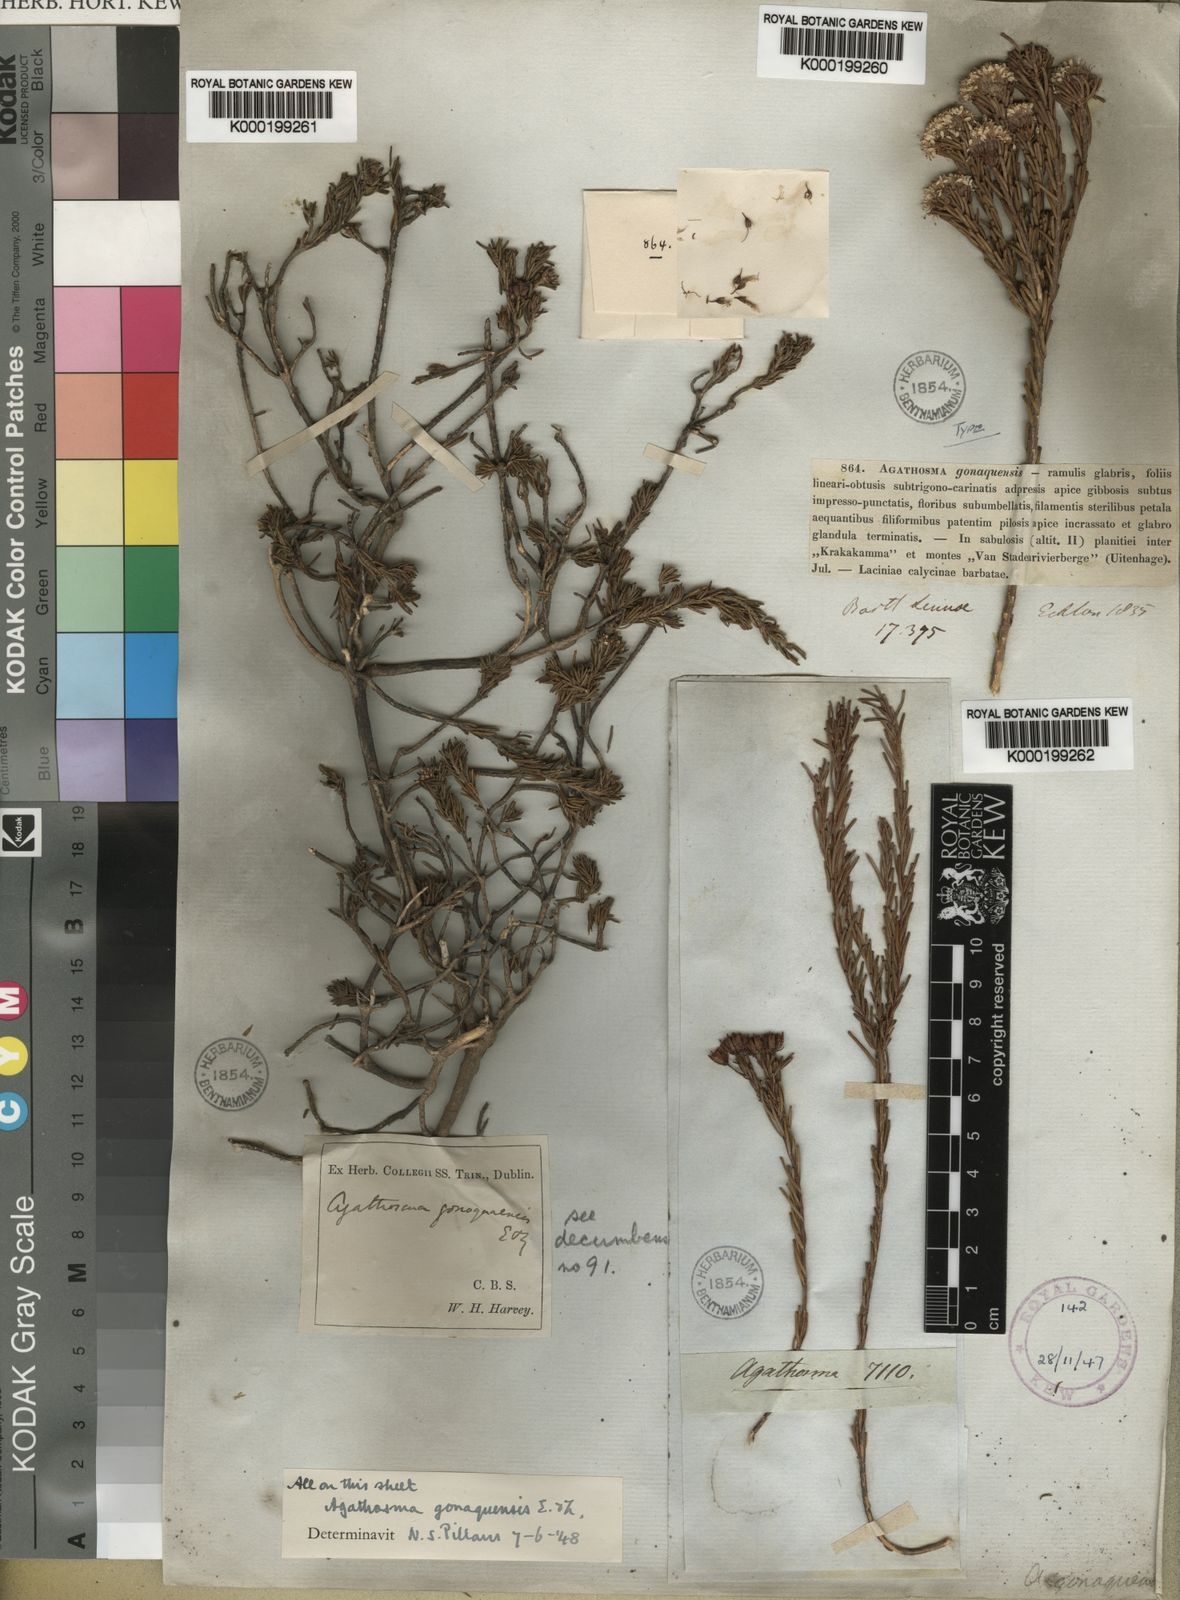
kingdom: Plantae
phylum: Tracheophyta
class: Magnoliopsida
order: Sapindales
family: Rutaceae
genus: Agathosma
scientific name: Agathosma gonaquensis
